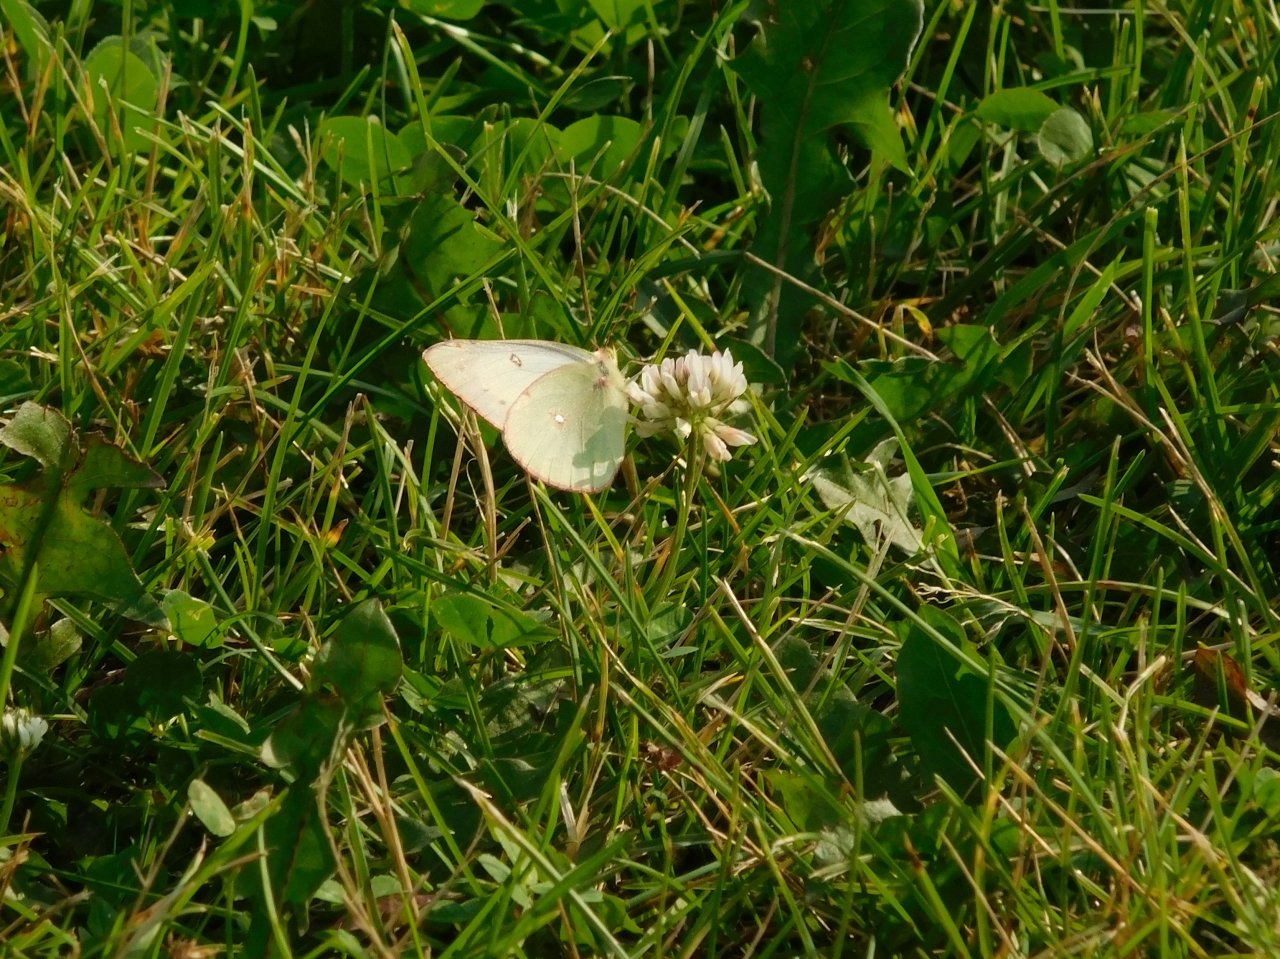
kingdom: Animalia
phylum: Arthropoda
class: Insecta
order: Lepidoptera
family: Pieridae
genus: Colias
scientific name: Colias philodice
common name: Clouded Sulphur
